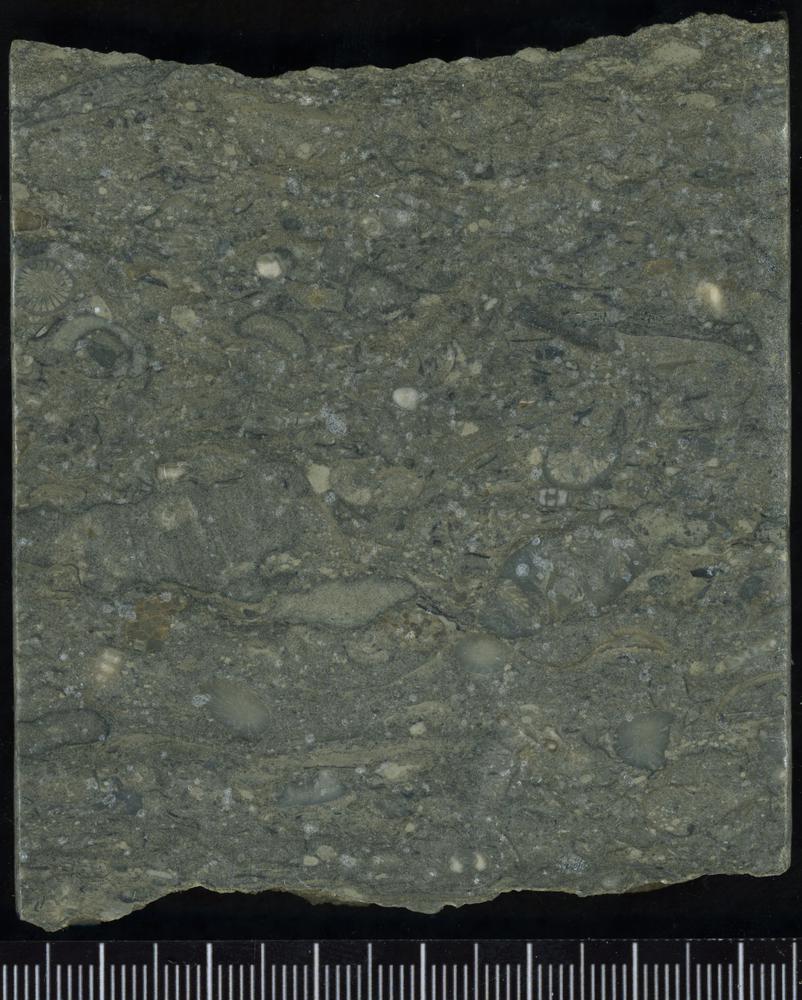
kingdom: Plantae
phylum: Tracheophyta
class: Pinopsida
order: Pinales
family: Cupressaceae
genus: Platycladus
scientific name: Platycladus
